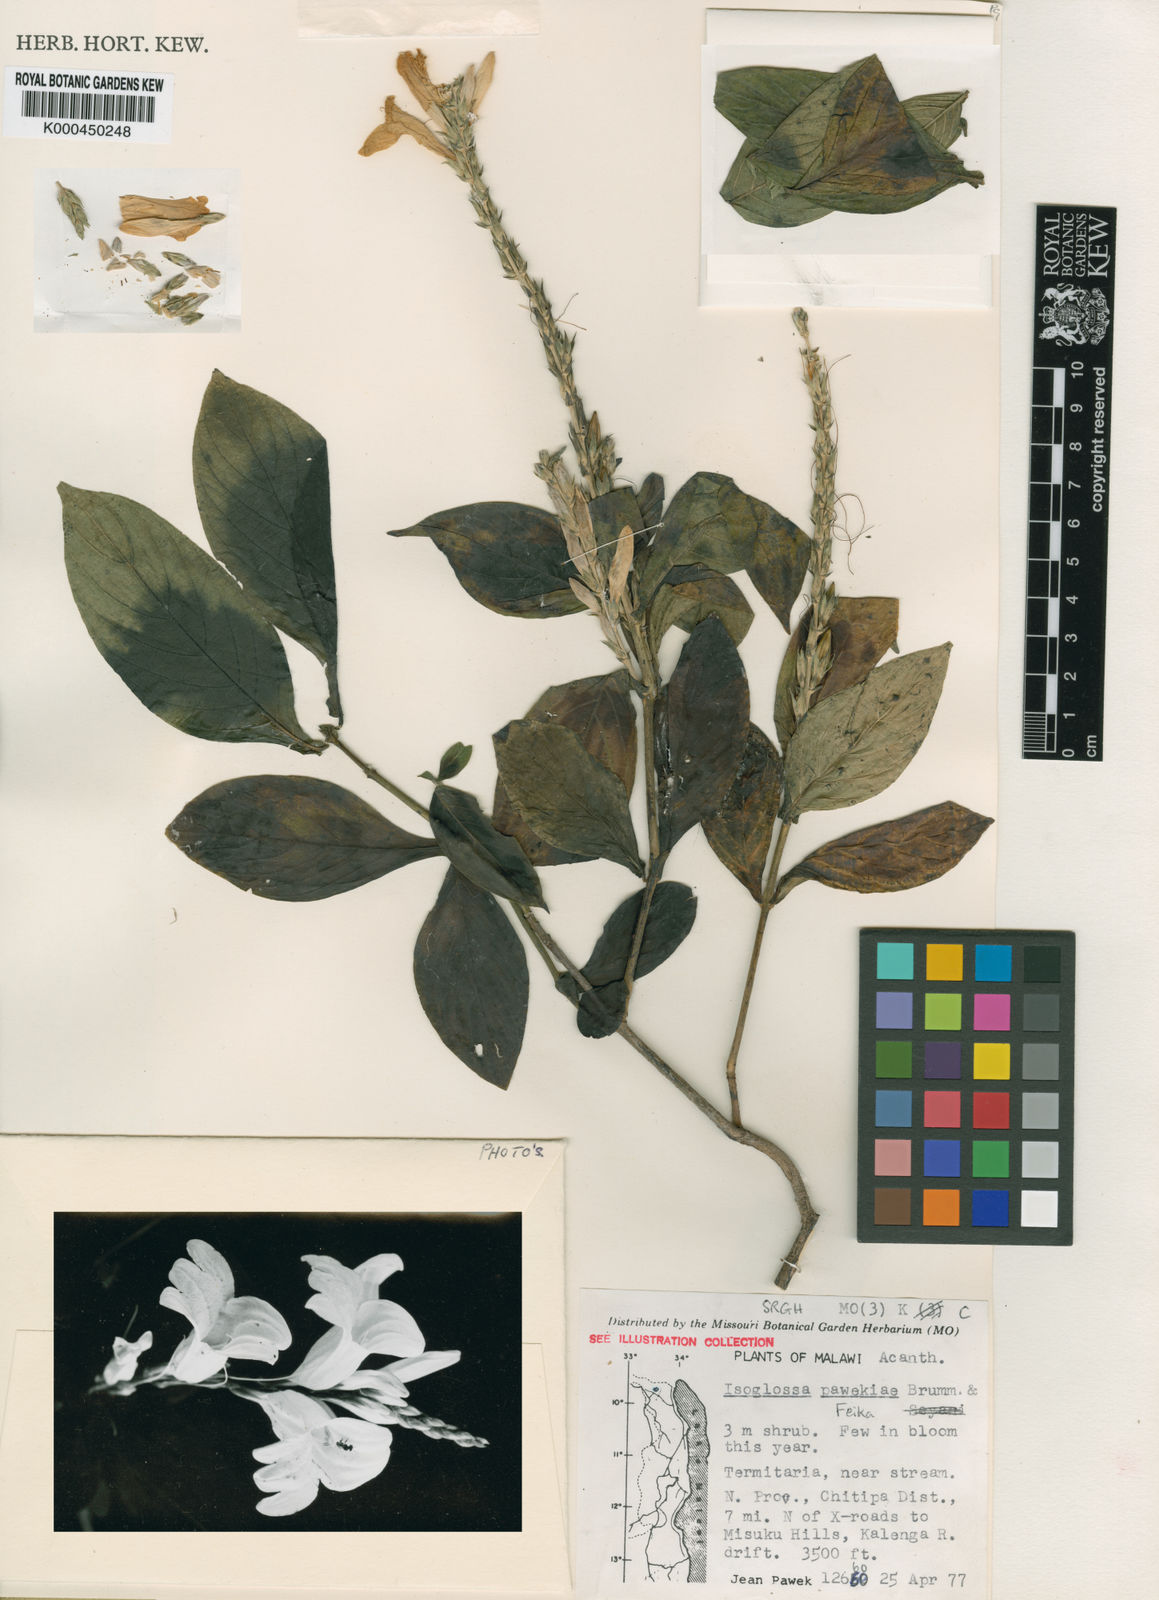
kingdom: Plantae
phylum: Tracheophyta
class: Magnoliopsida
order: Lamiales
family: Acanthaceae
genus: Isoglossa
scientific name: Isoglossa pawekiae
